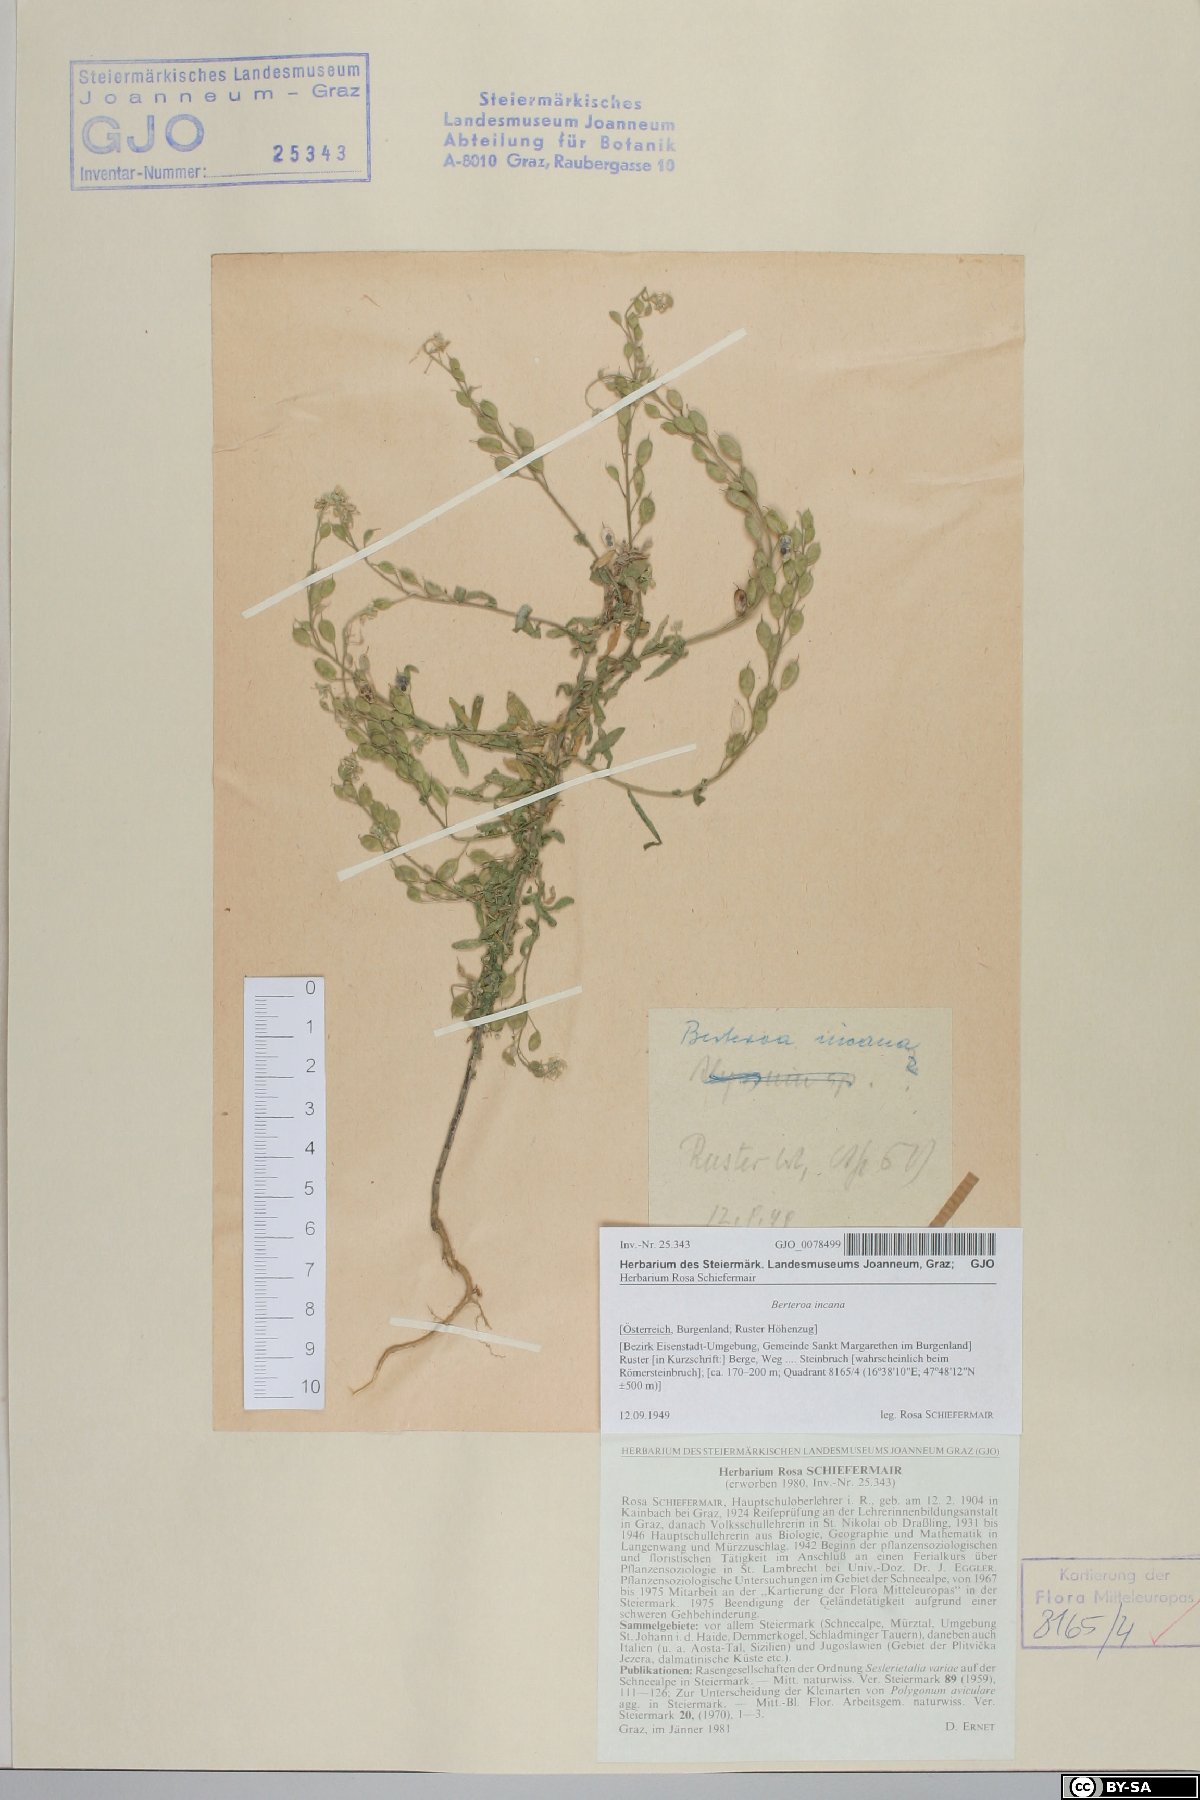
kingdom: Plantae
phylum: Tracheophyta
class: Magnoliopsida
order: Brassicales
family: Brassicaceae
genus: Berteroa
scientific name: Berteroa incana
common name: Hoary alison
